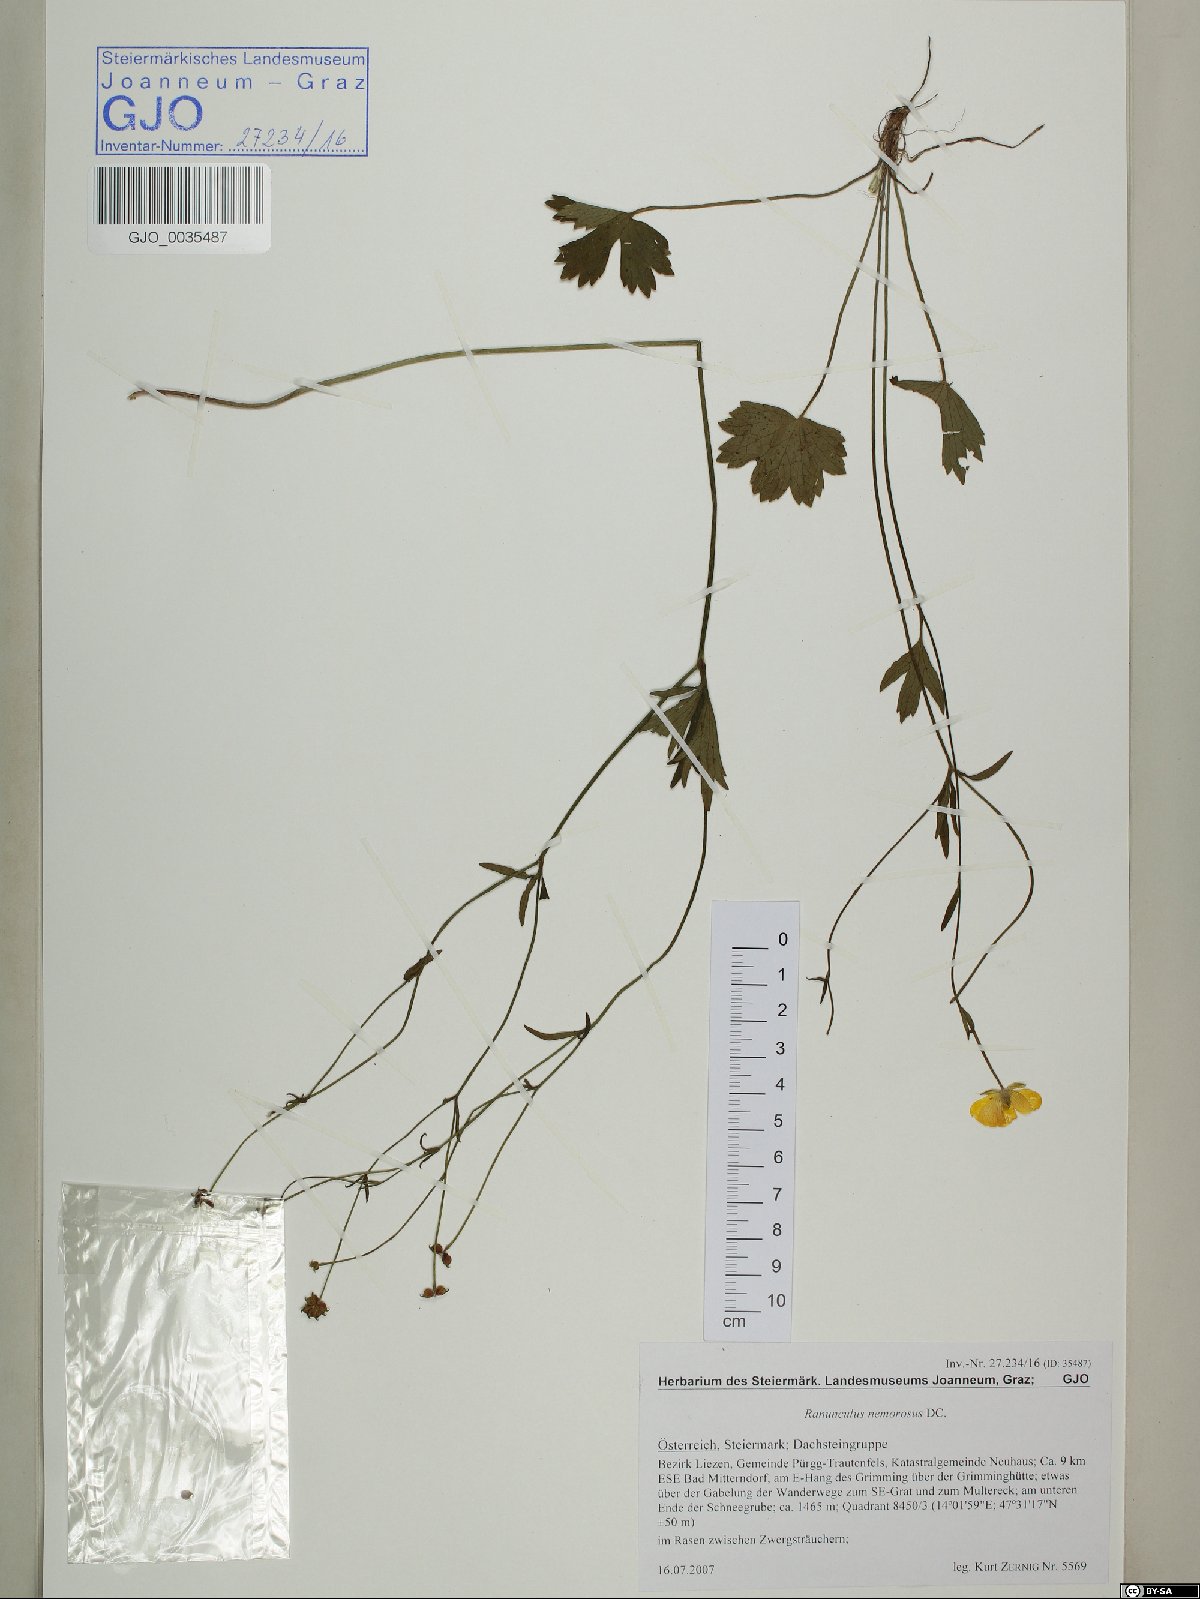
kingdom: Plantae
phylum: Tracheophyta
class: Magnoliopsida
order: Ranunculales
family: Ranunculaceae
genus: Ranunculus
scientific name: Ranunculus polyanthemos
